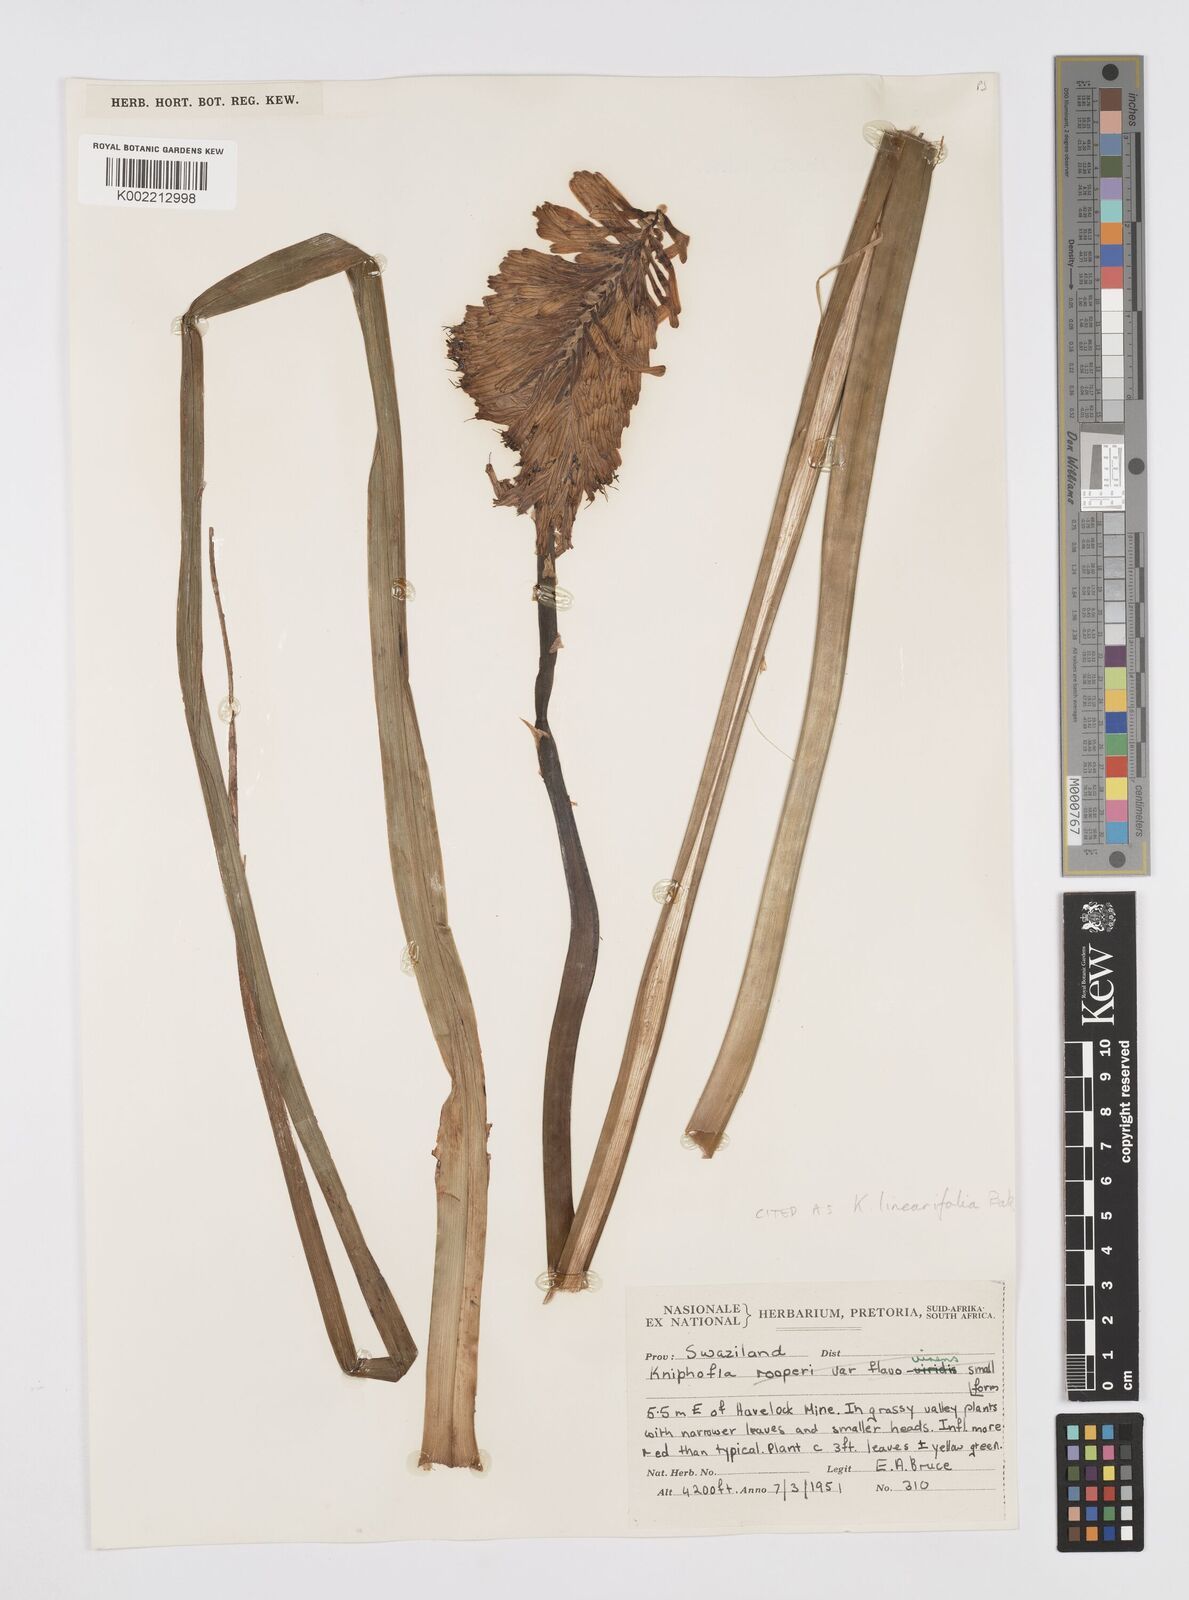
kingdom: Plantae
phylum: Tracheophyta
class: Liliopsida
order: Asparagales
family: Asphodelaceae
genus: Kniphofia
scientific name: Kniphofia linearifolia
